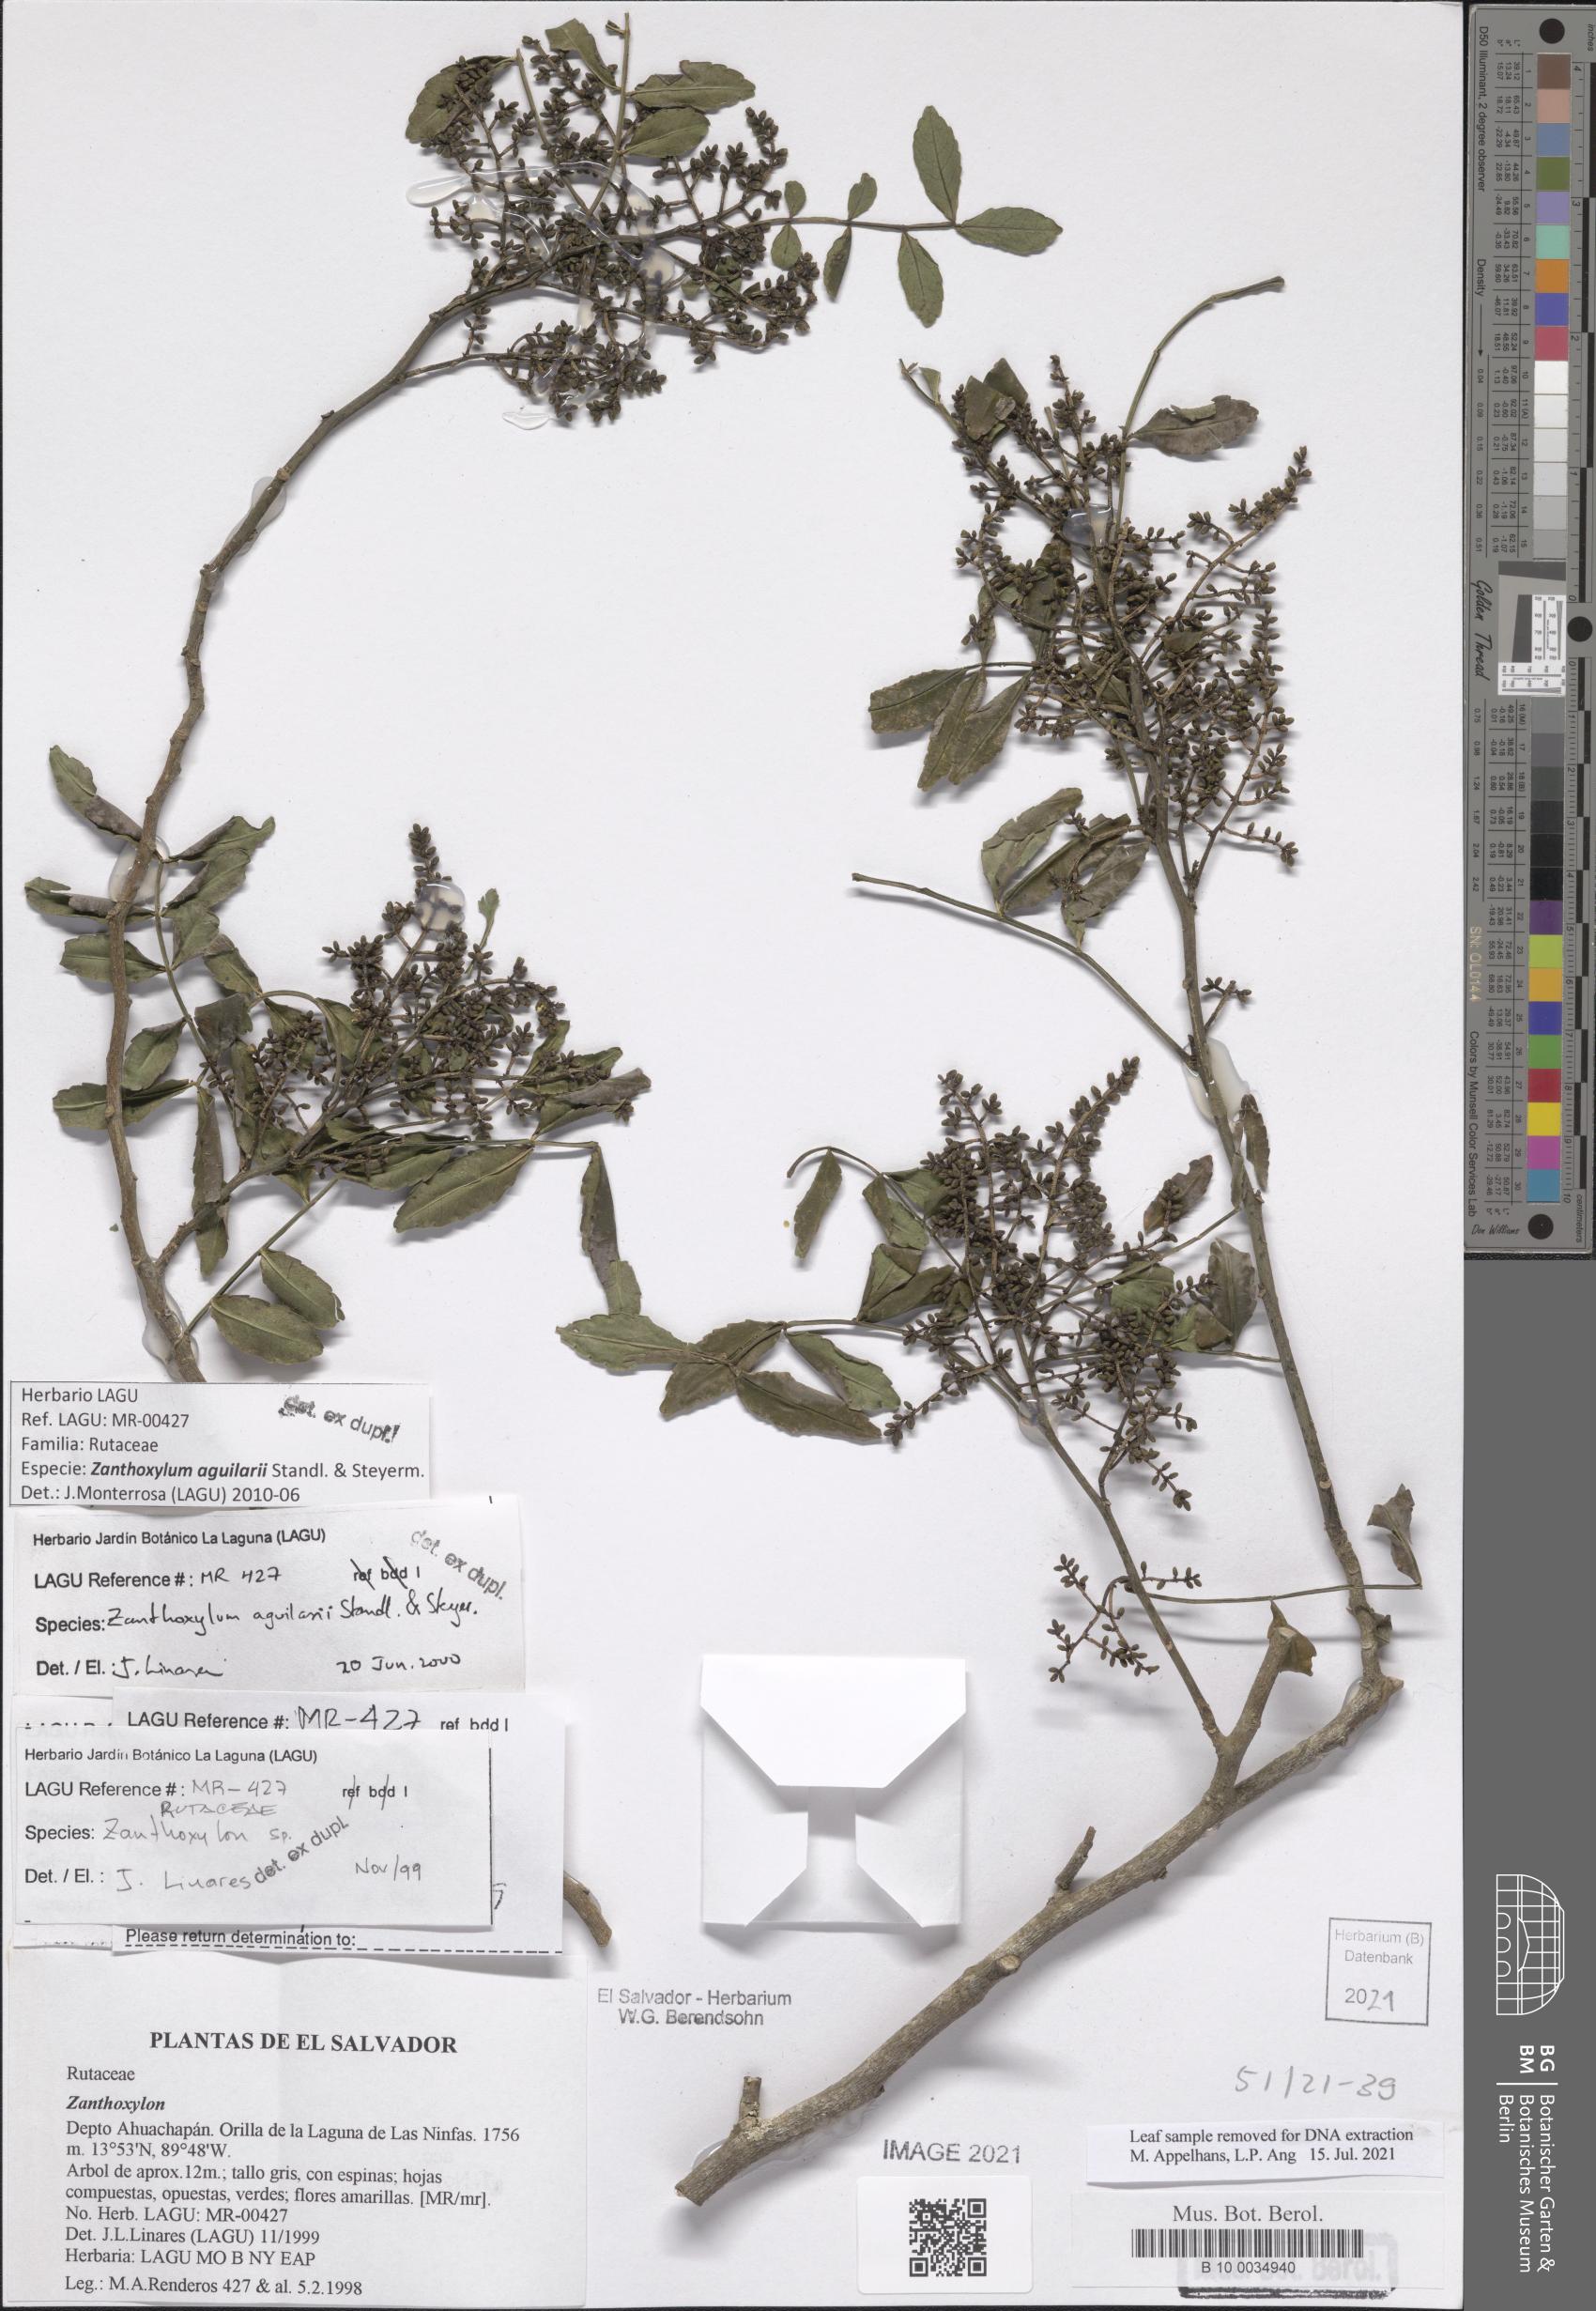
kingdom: Plantae
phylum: Tracheophyta
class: Magnoliopsida
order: Sapindales
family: Rutaceae
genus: Zanthoxylum
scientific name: Zanthoxylum fagara
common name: Lime prickly-ash
